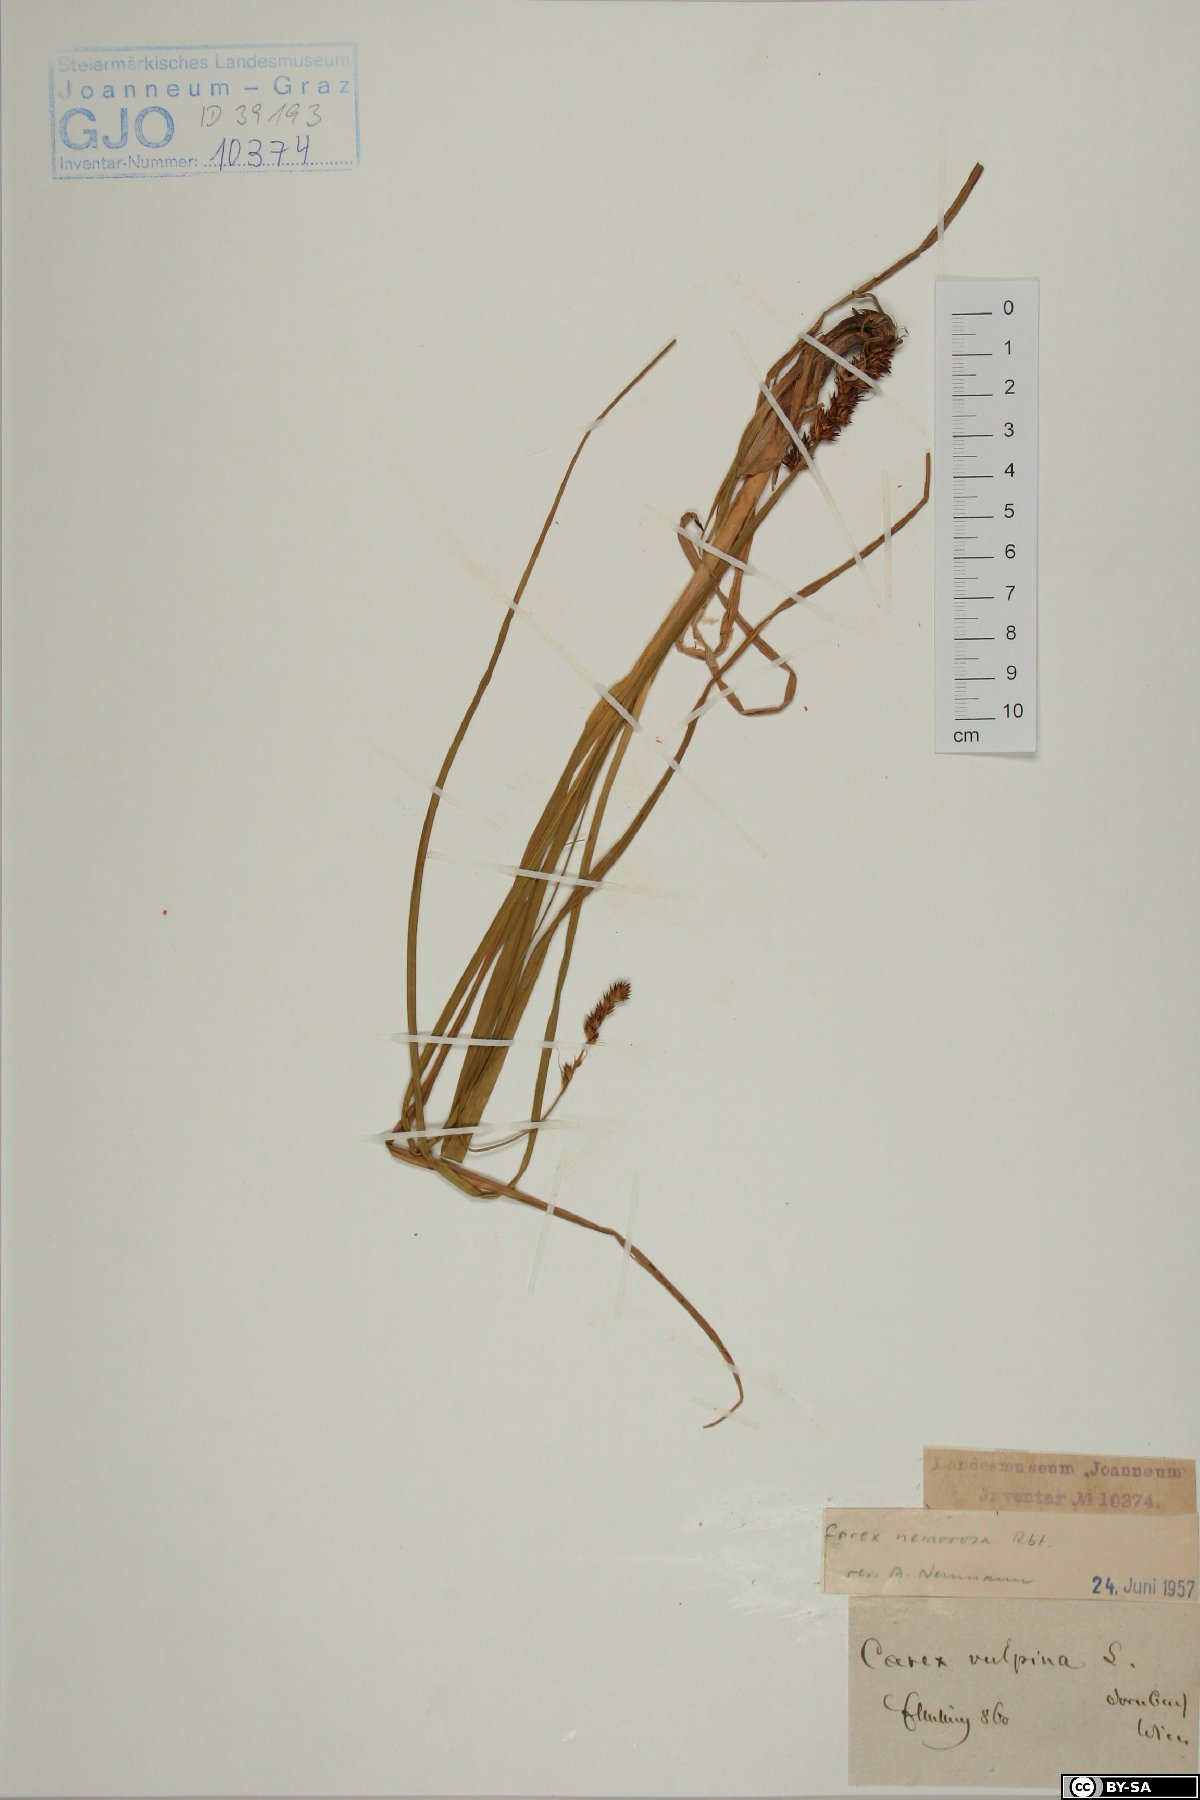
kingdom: Plantae
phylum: Tracheophyta
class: Liliopsida
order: Poales
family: Cyperaceae
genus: Carex
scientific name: Carex otrubae
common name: False fox-sedge
